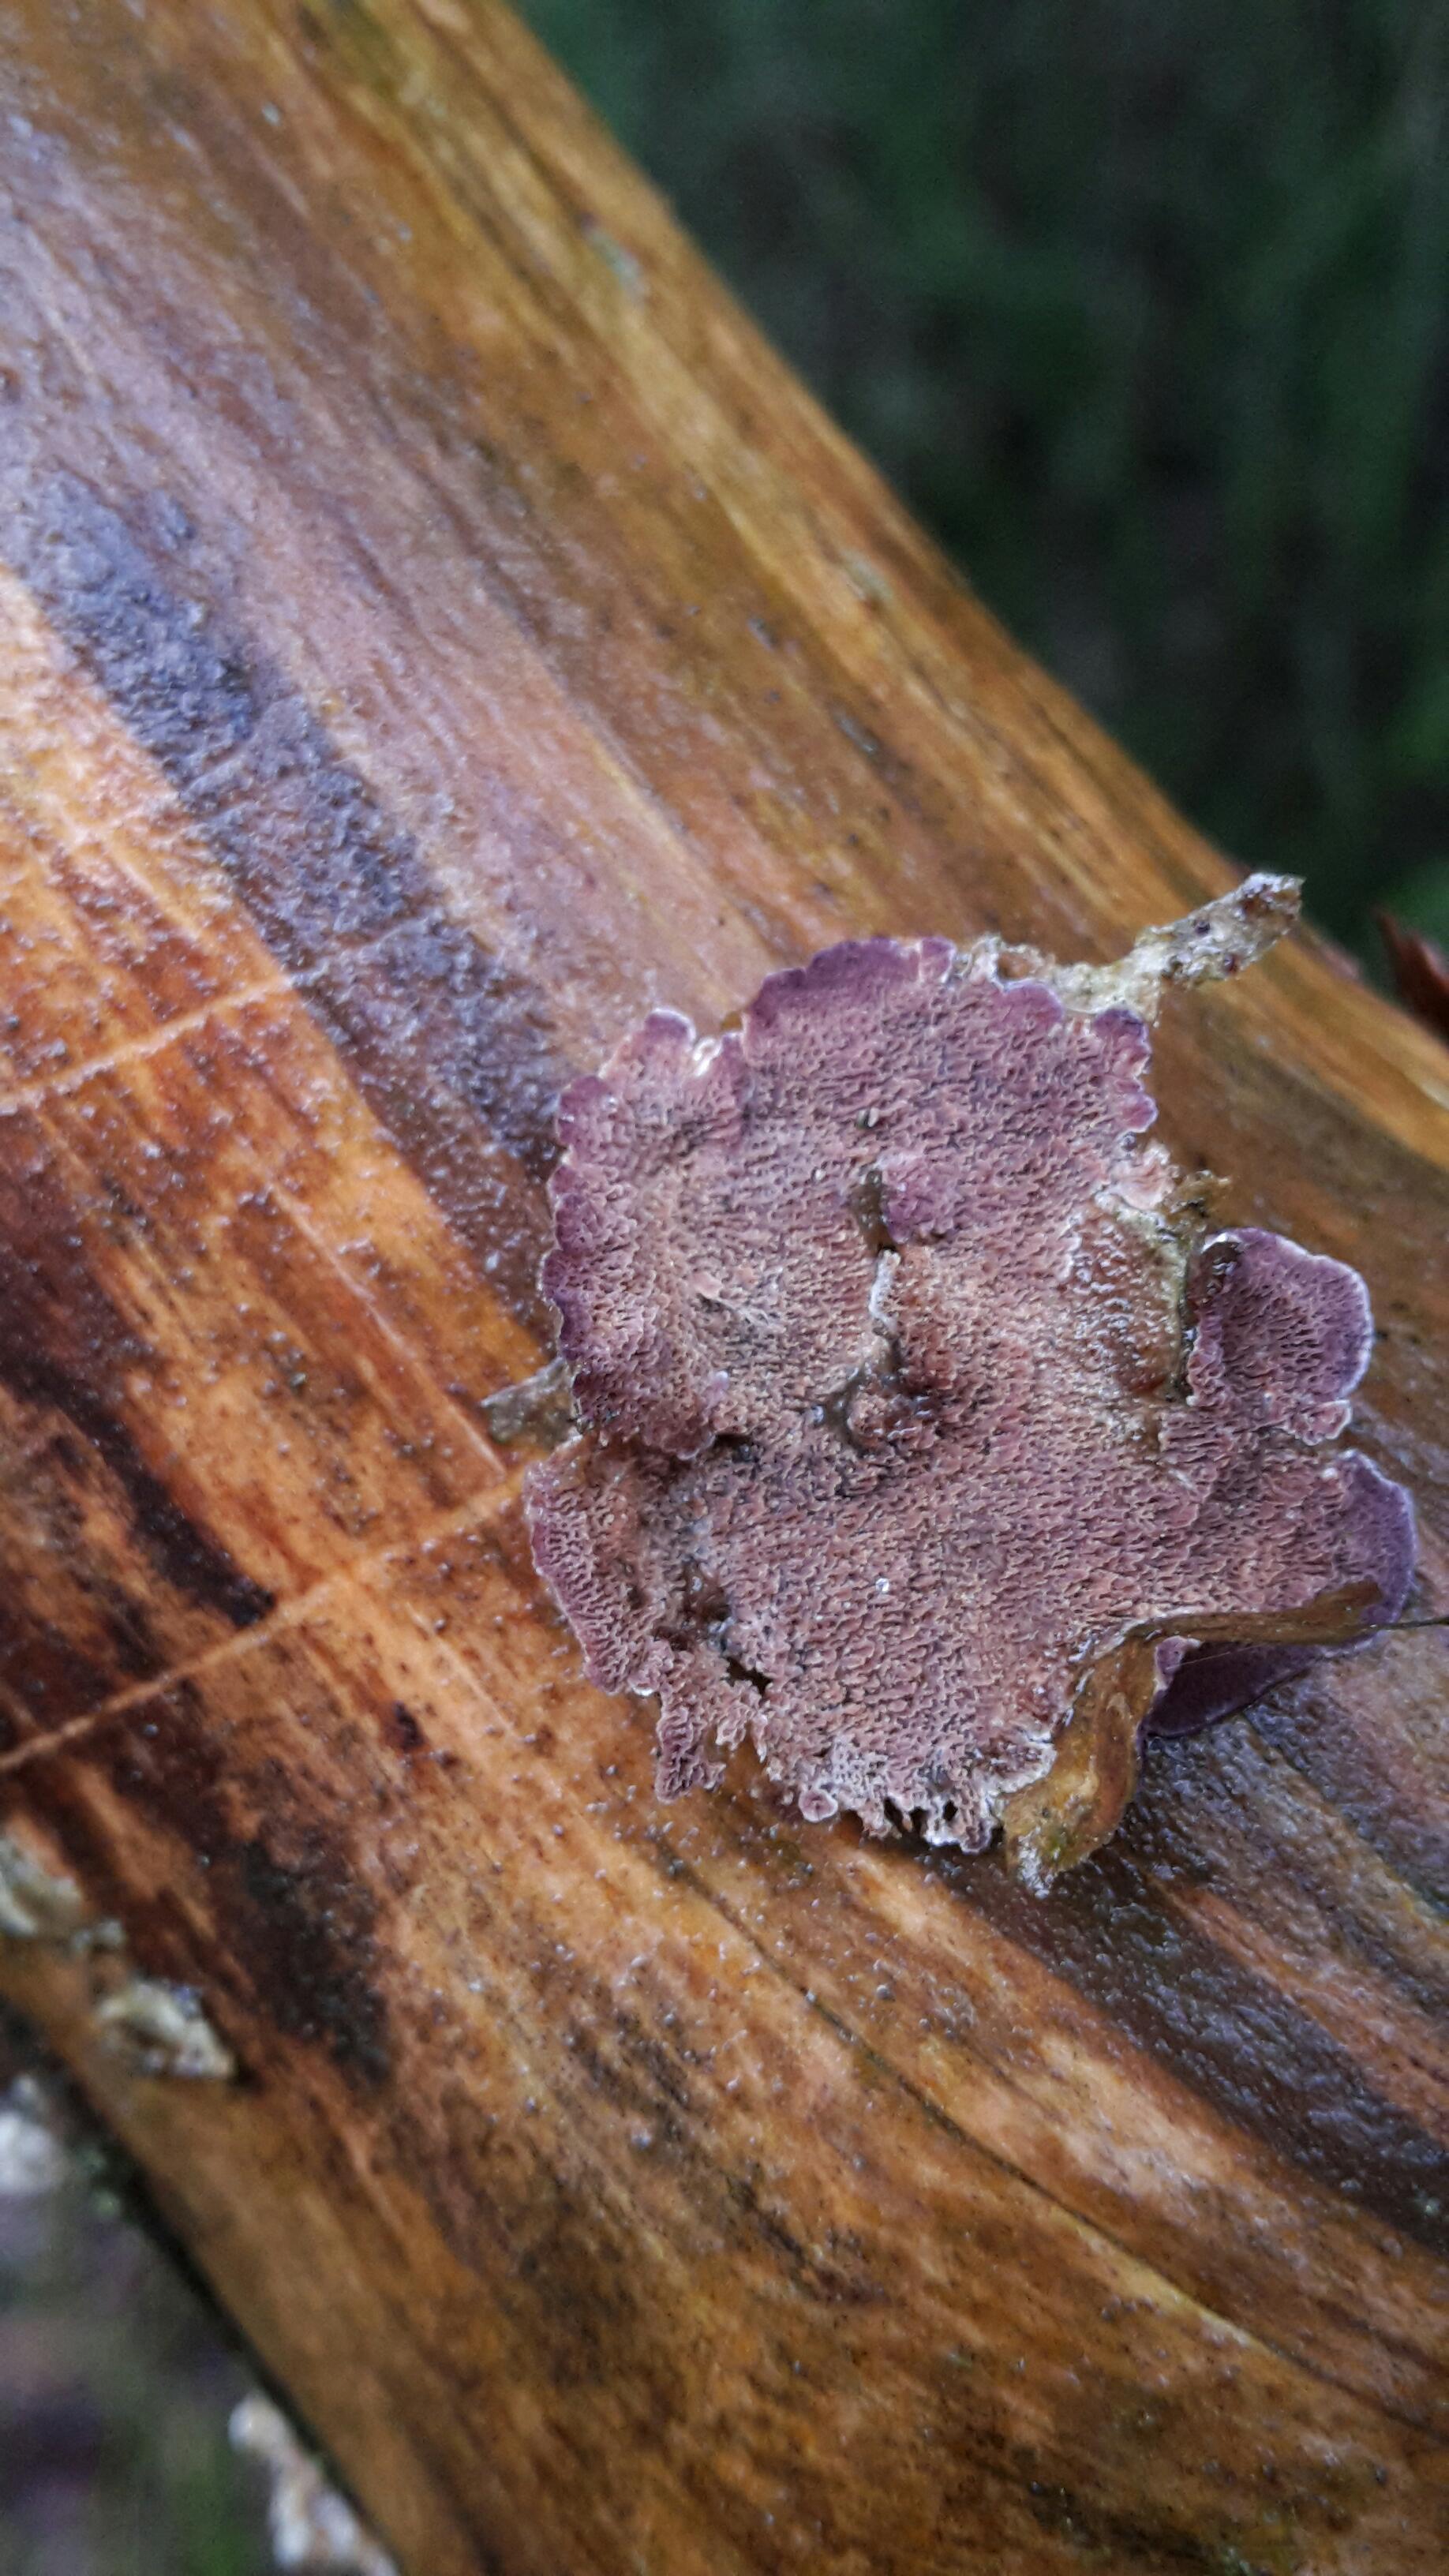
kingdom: Fungi
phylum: Basidiomycota
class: Agaricomycetes
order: Hymenochaetales
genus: Trichaptum
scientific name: Trichaptum abietinum
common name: almindelig violporesvamp
